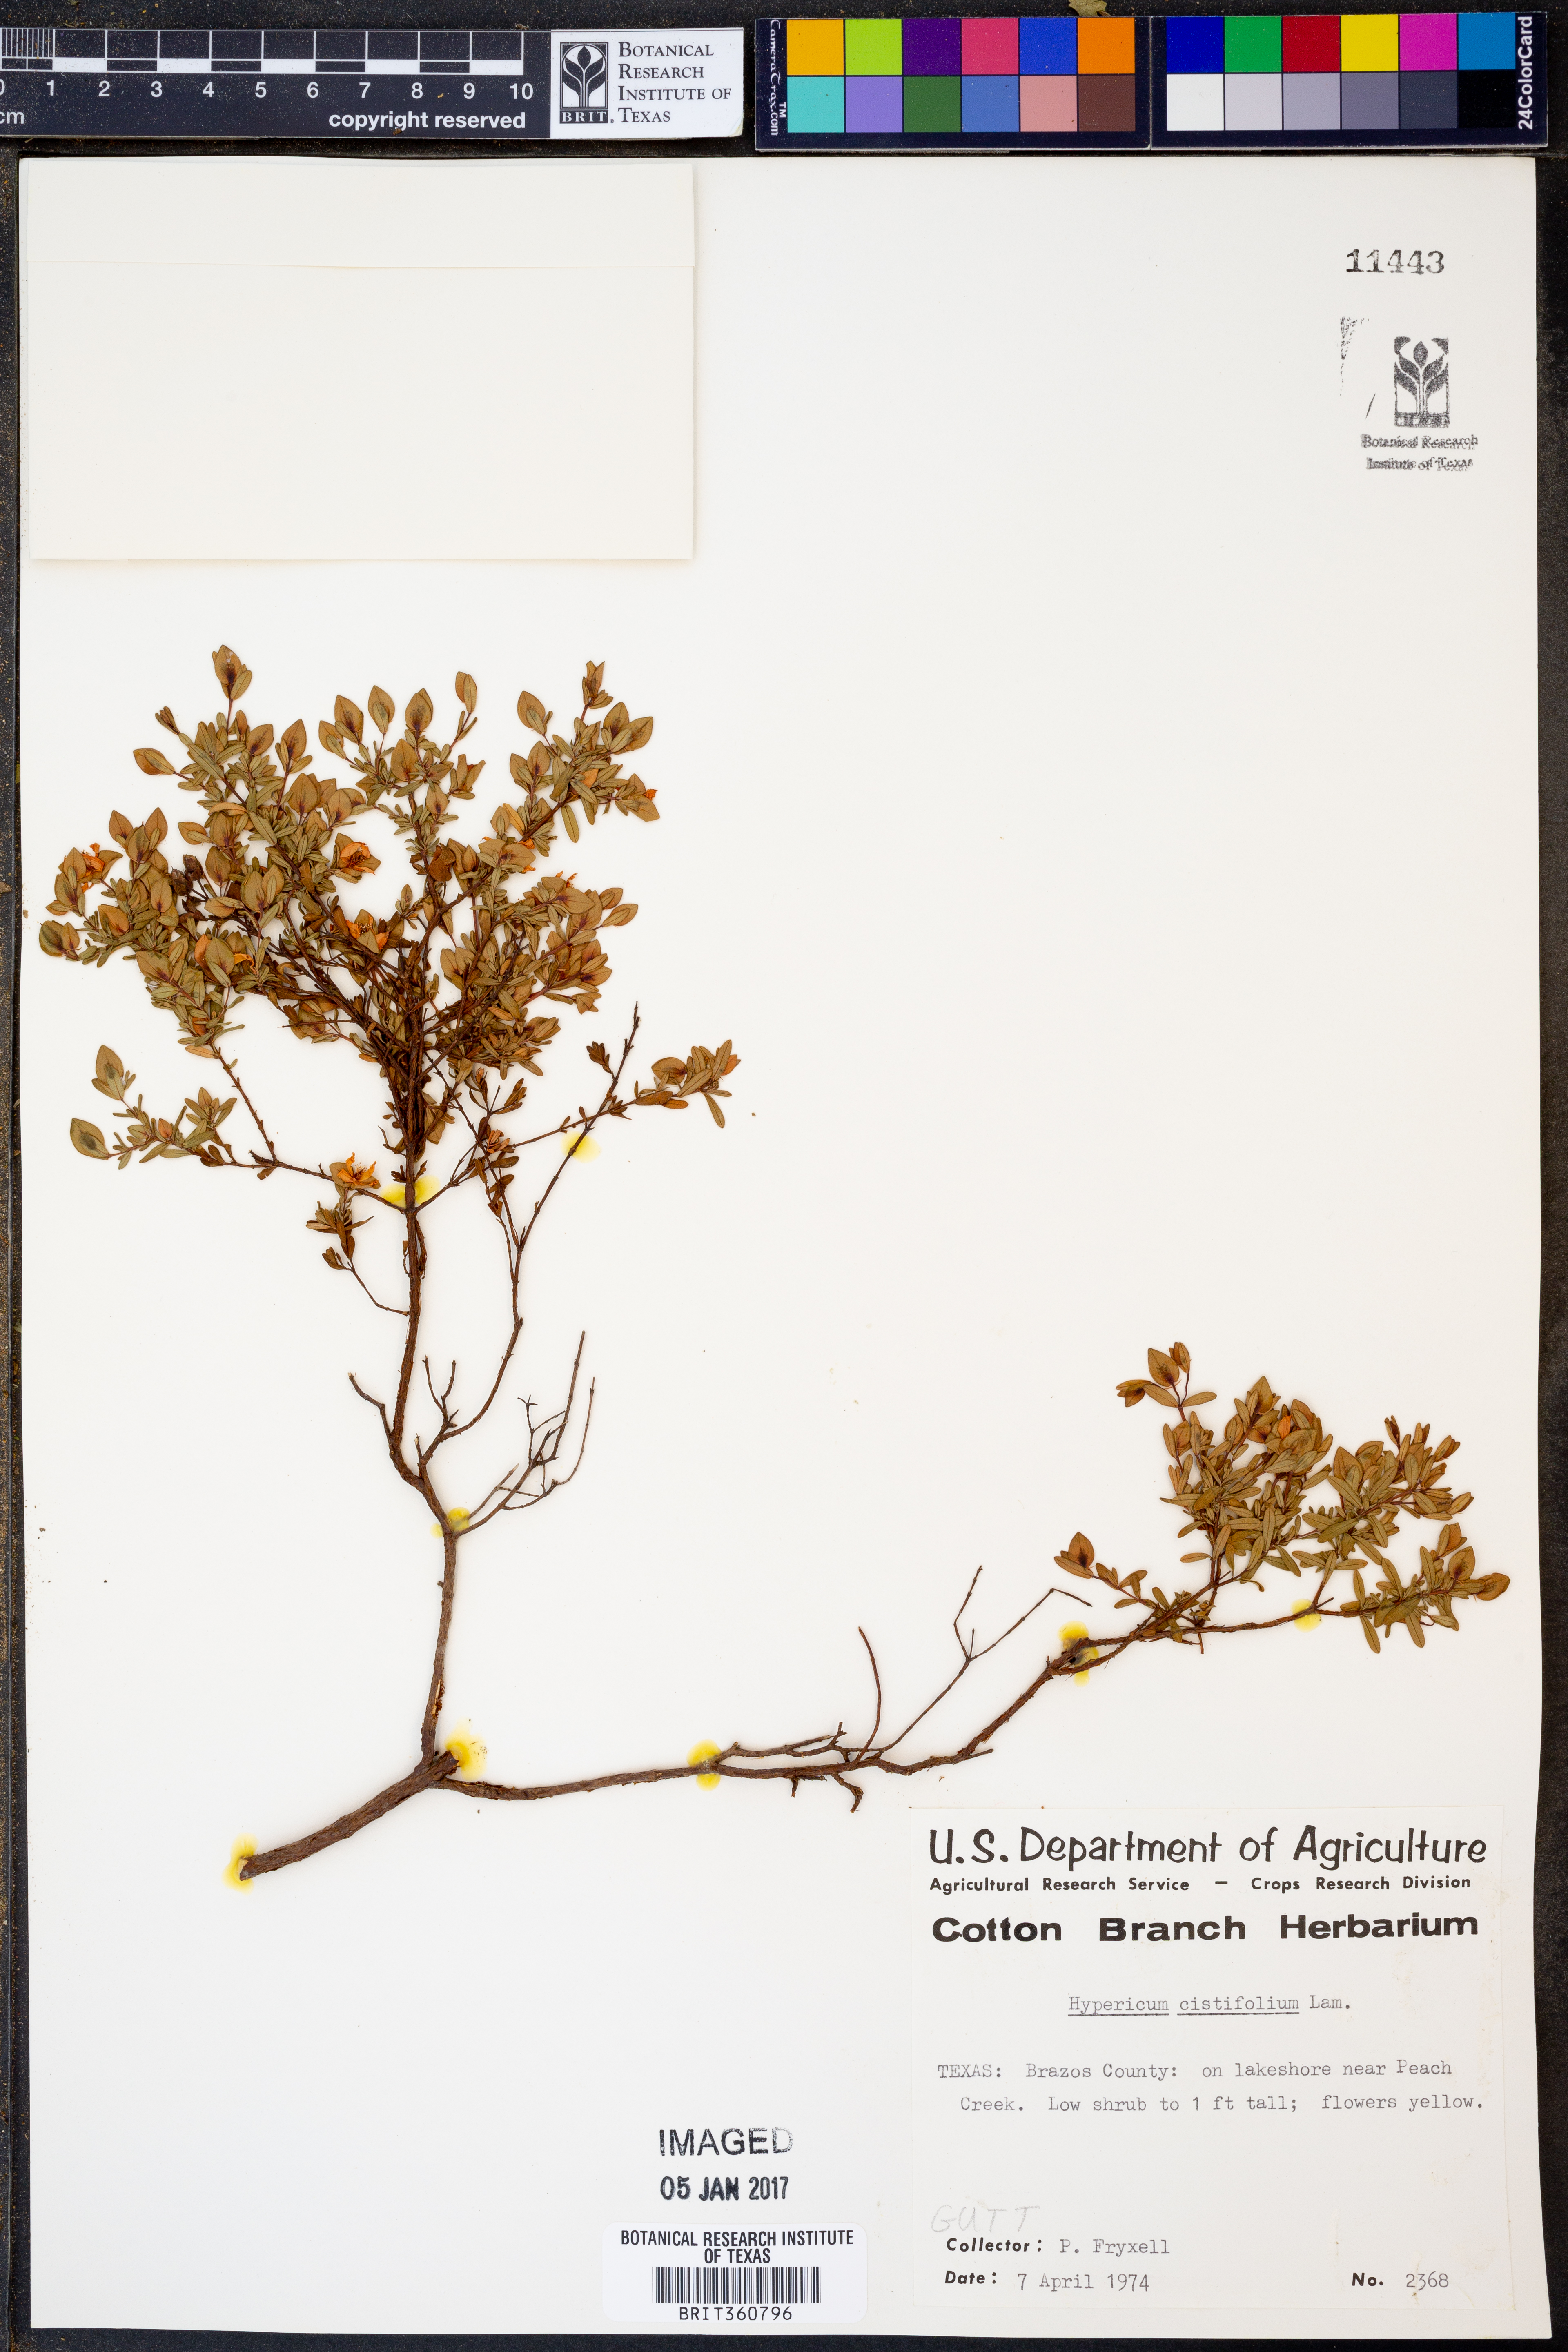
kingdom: Plantae
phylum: Tracheophyta
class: Magnoliopsida
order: Malpighiales
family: Hypericaceae
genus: Hypericum
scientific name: Hypericum cistifolium
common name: Round-pod st. john's-wort
